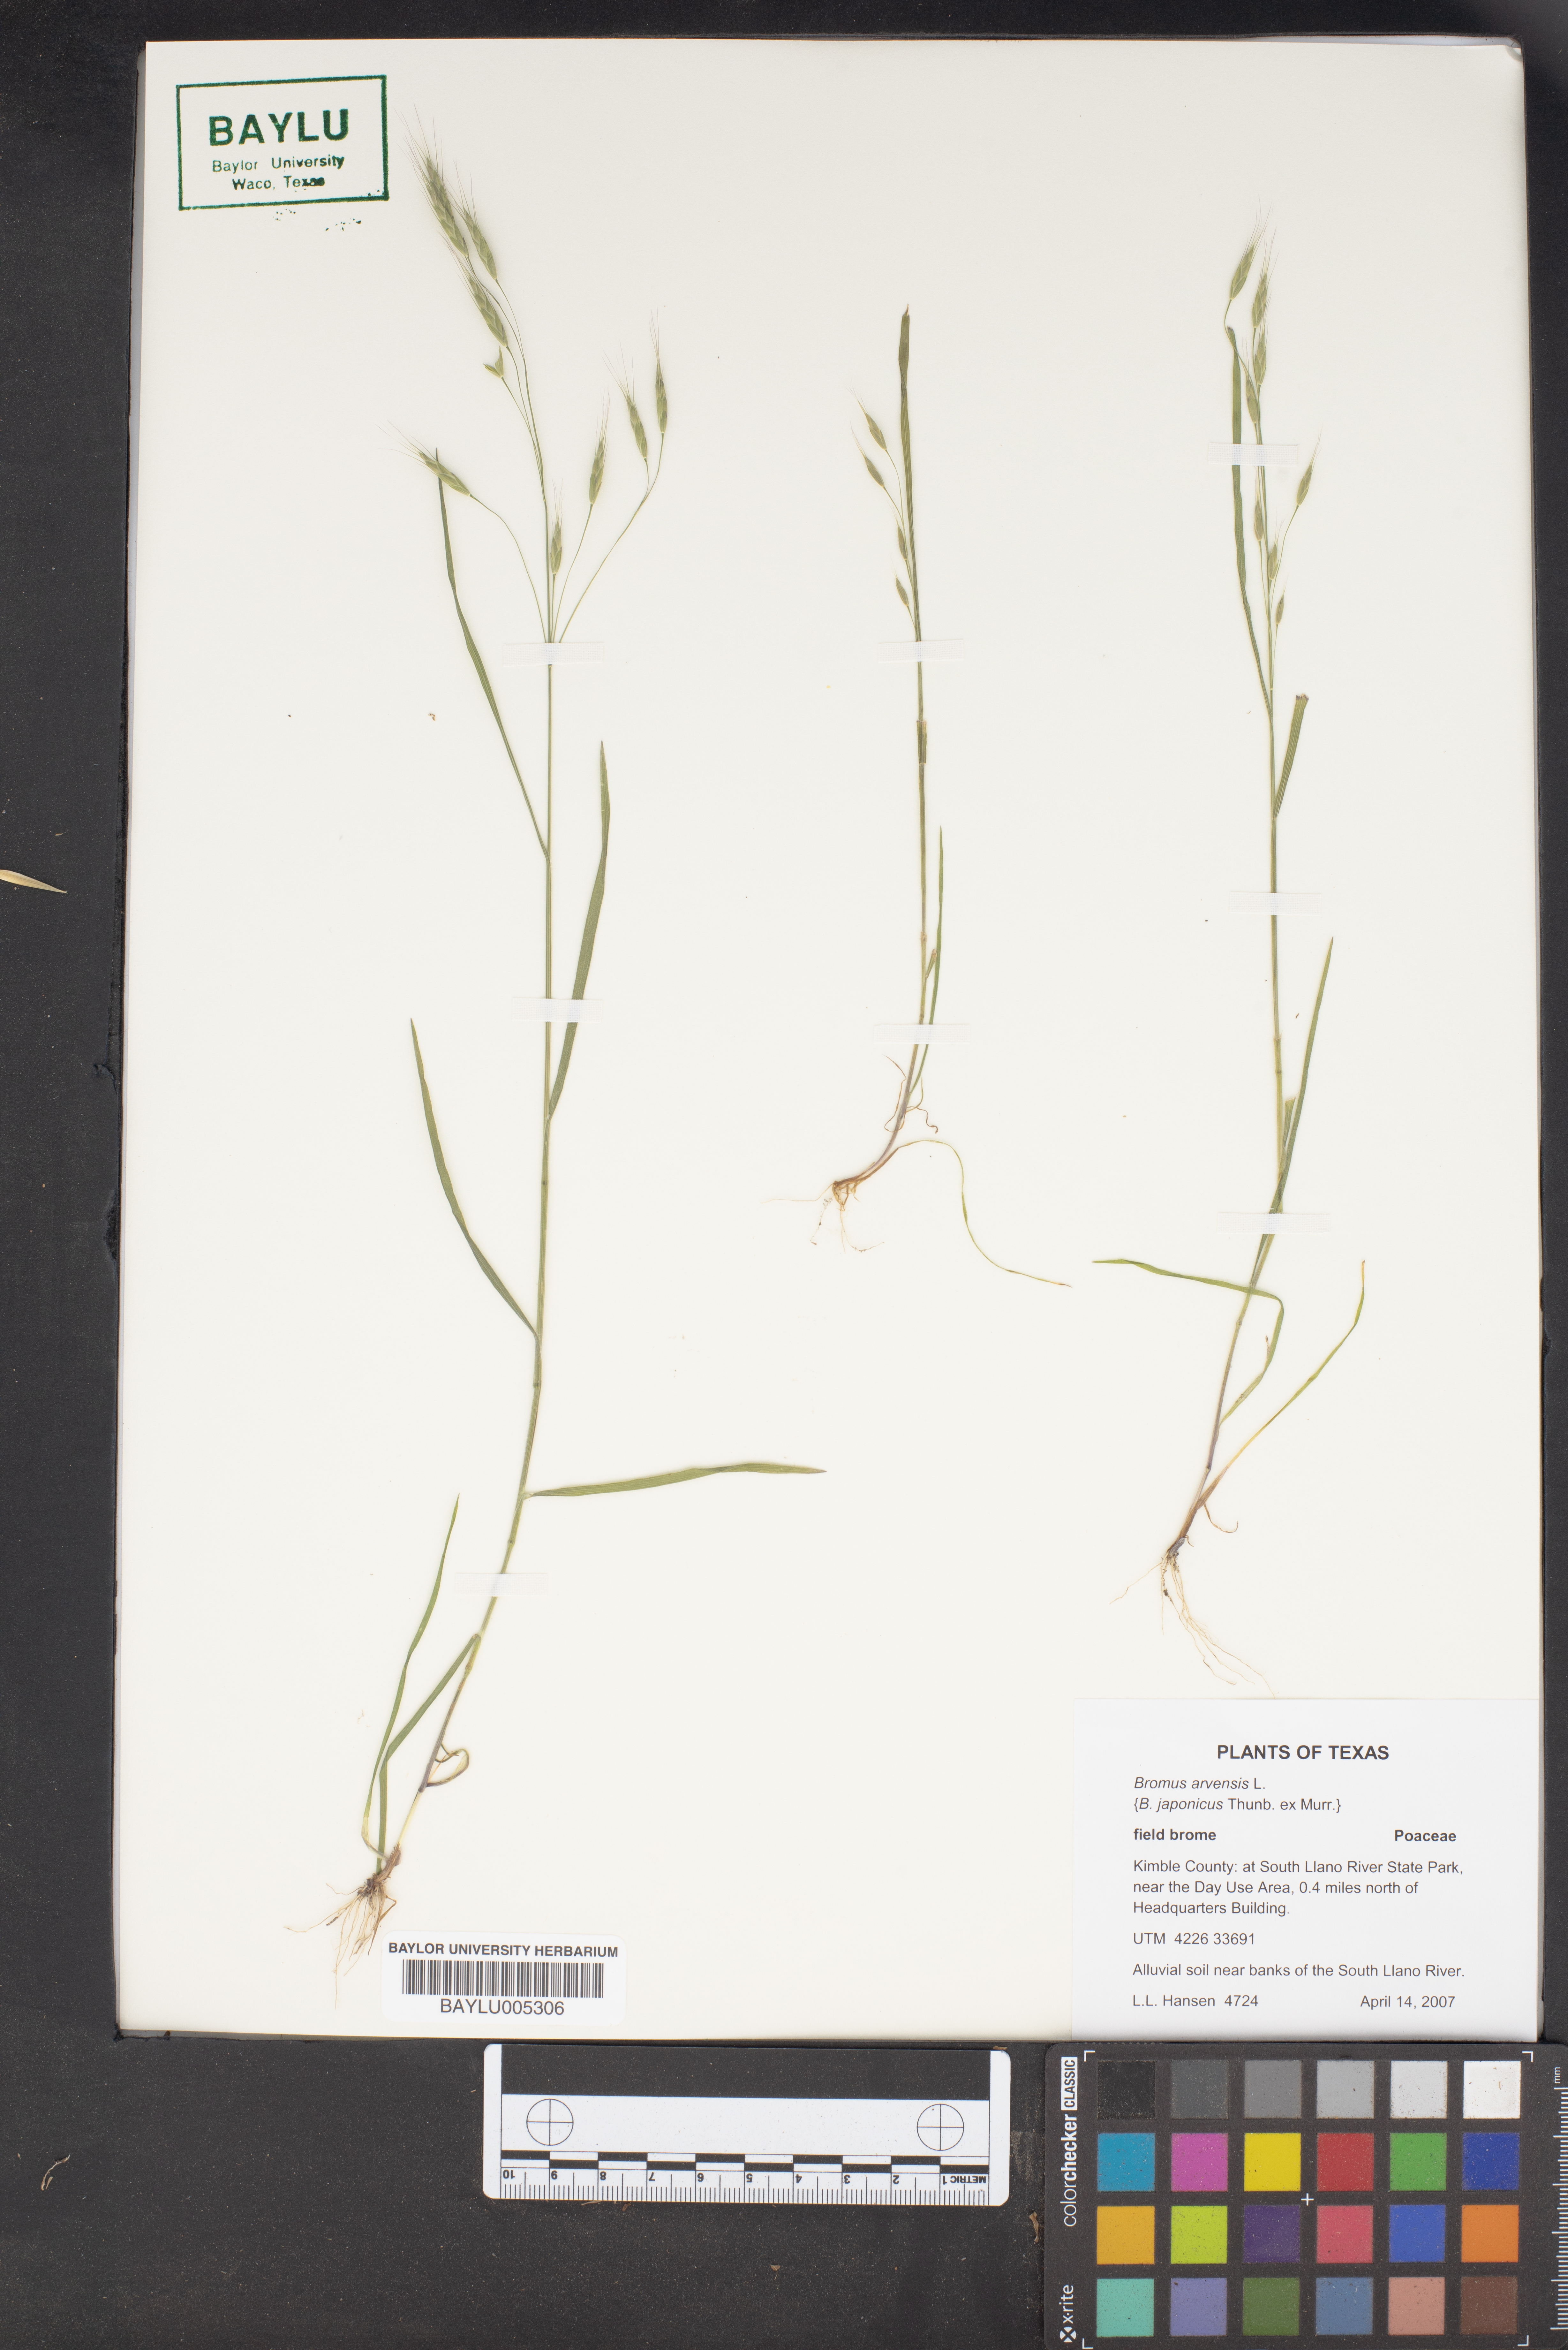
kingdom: Plantae
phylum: Tracheophyta
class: Liliopsida
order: Poales
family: Poaceae
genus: Bromus
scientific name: Bromus arvensis
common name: Field brome
